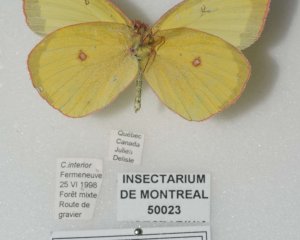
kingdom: Animalia
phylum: Arthropoda
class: Insecta
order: Lepidoptera
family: Pieridae
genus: Colias
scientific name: Colias interior
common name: Pink-edged Sulphur
